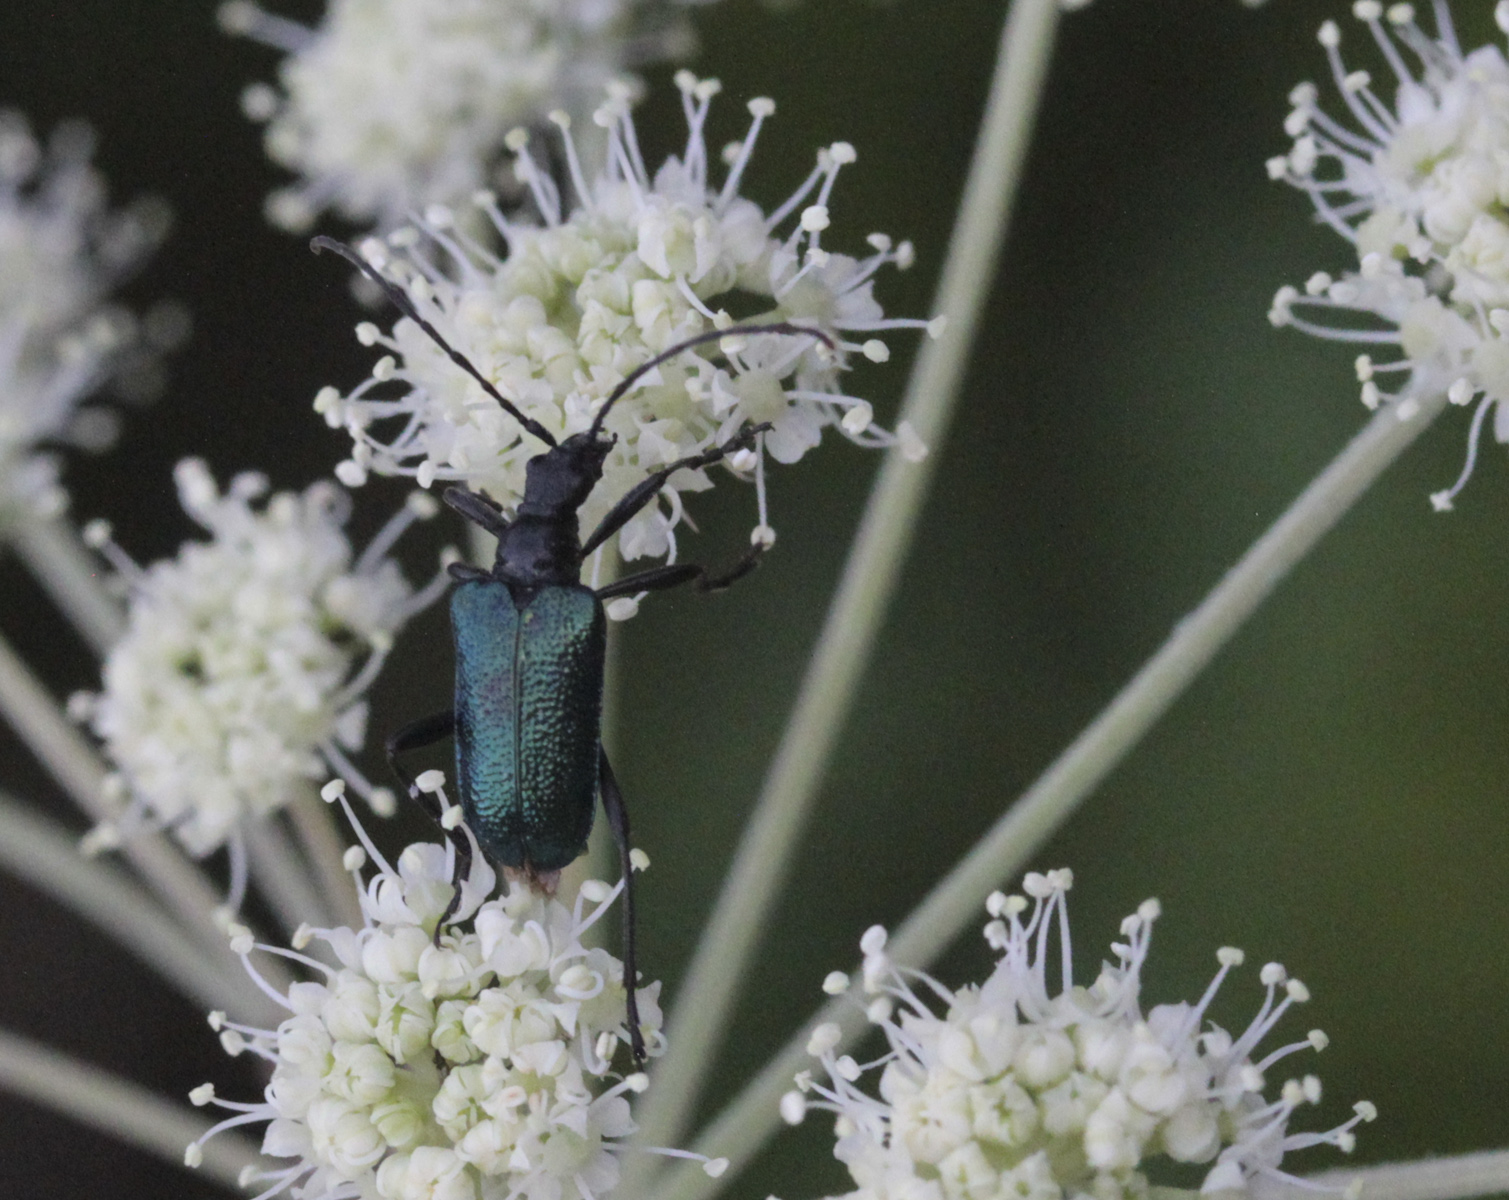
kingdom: Animalia
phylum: Arthropoda
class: Insecta
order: Coleoptera
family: Cerambycidae
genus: Gaurotes
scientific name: Gaurotes virginea
